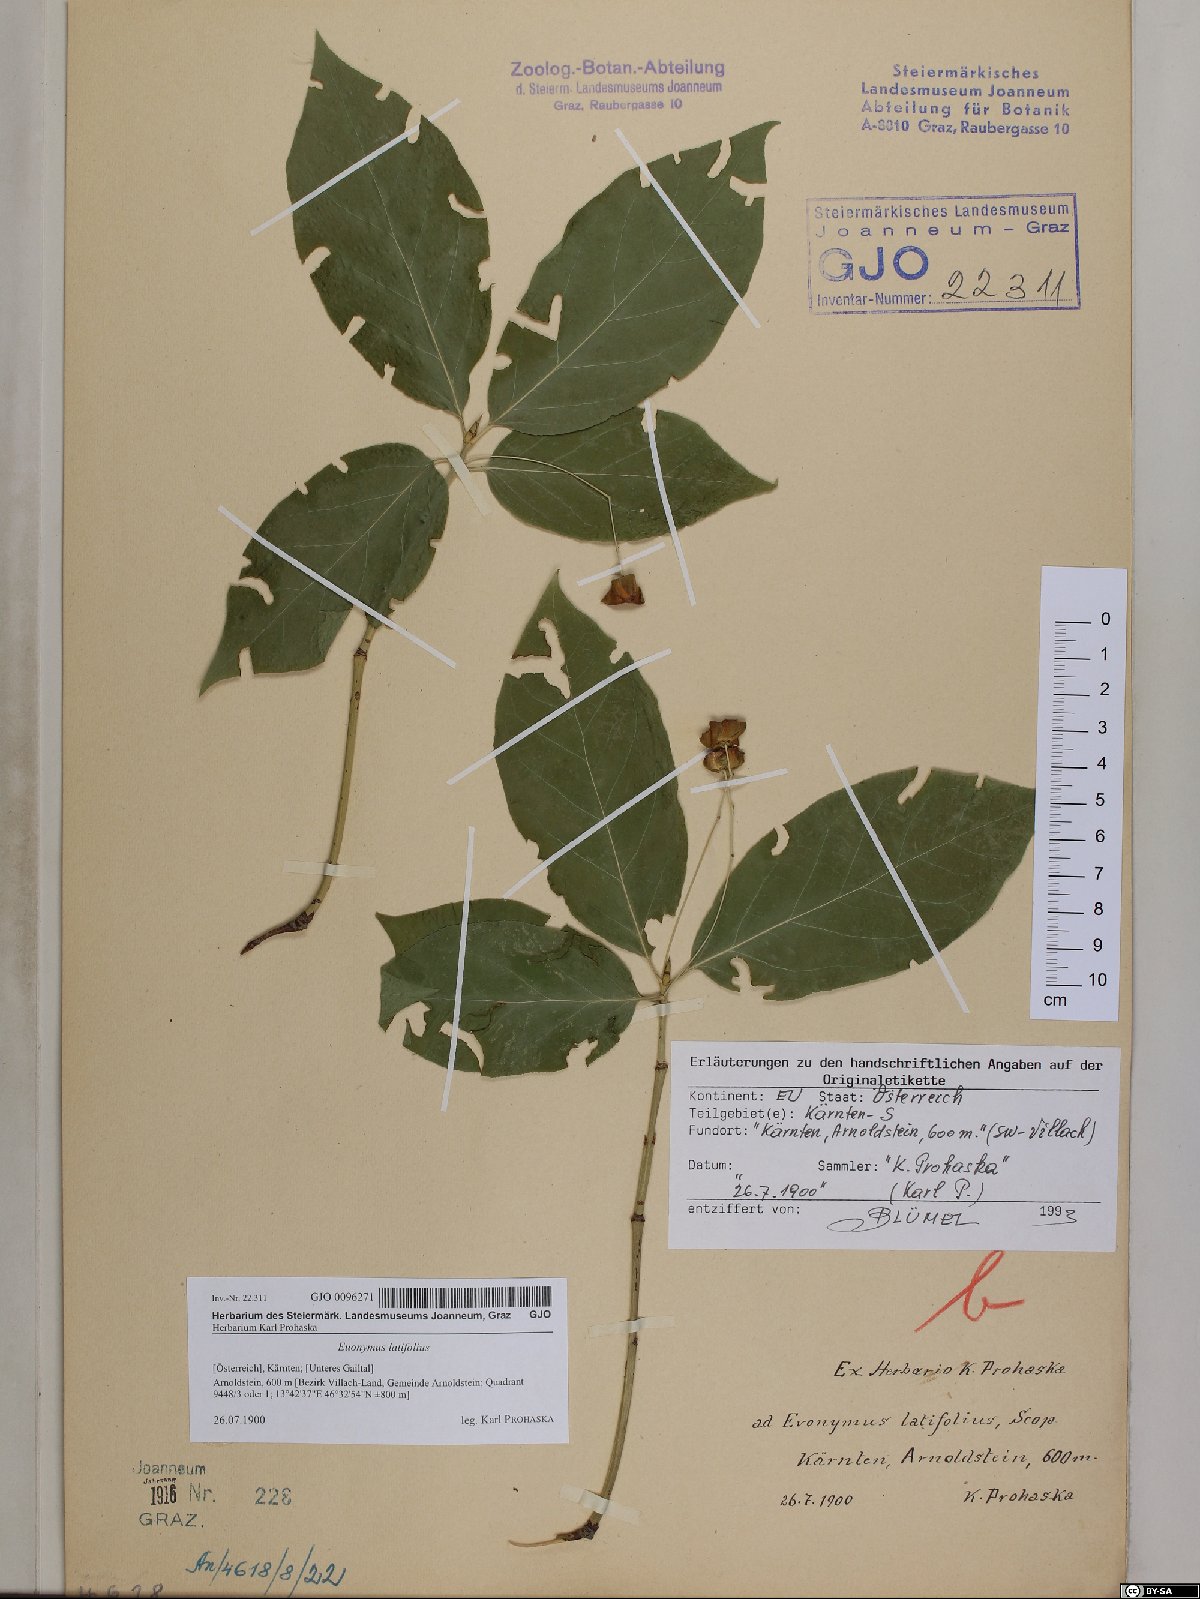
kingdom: Plantae
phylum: Tracheophyta
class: Magnoliopsida
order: Celastrales
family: Celastraceae
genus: Euonymus
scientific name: Euonymus latifolius
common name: Large-leaved spindle
